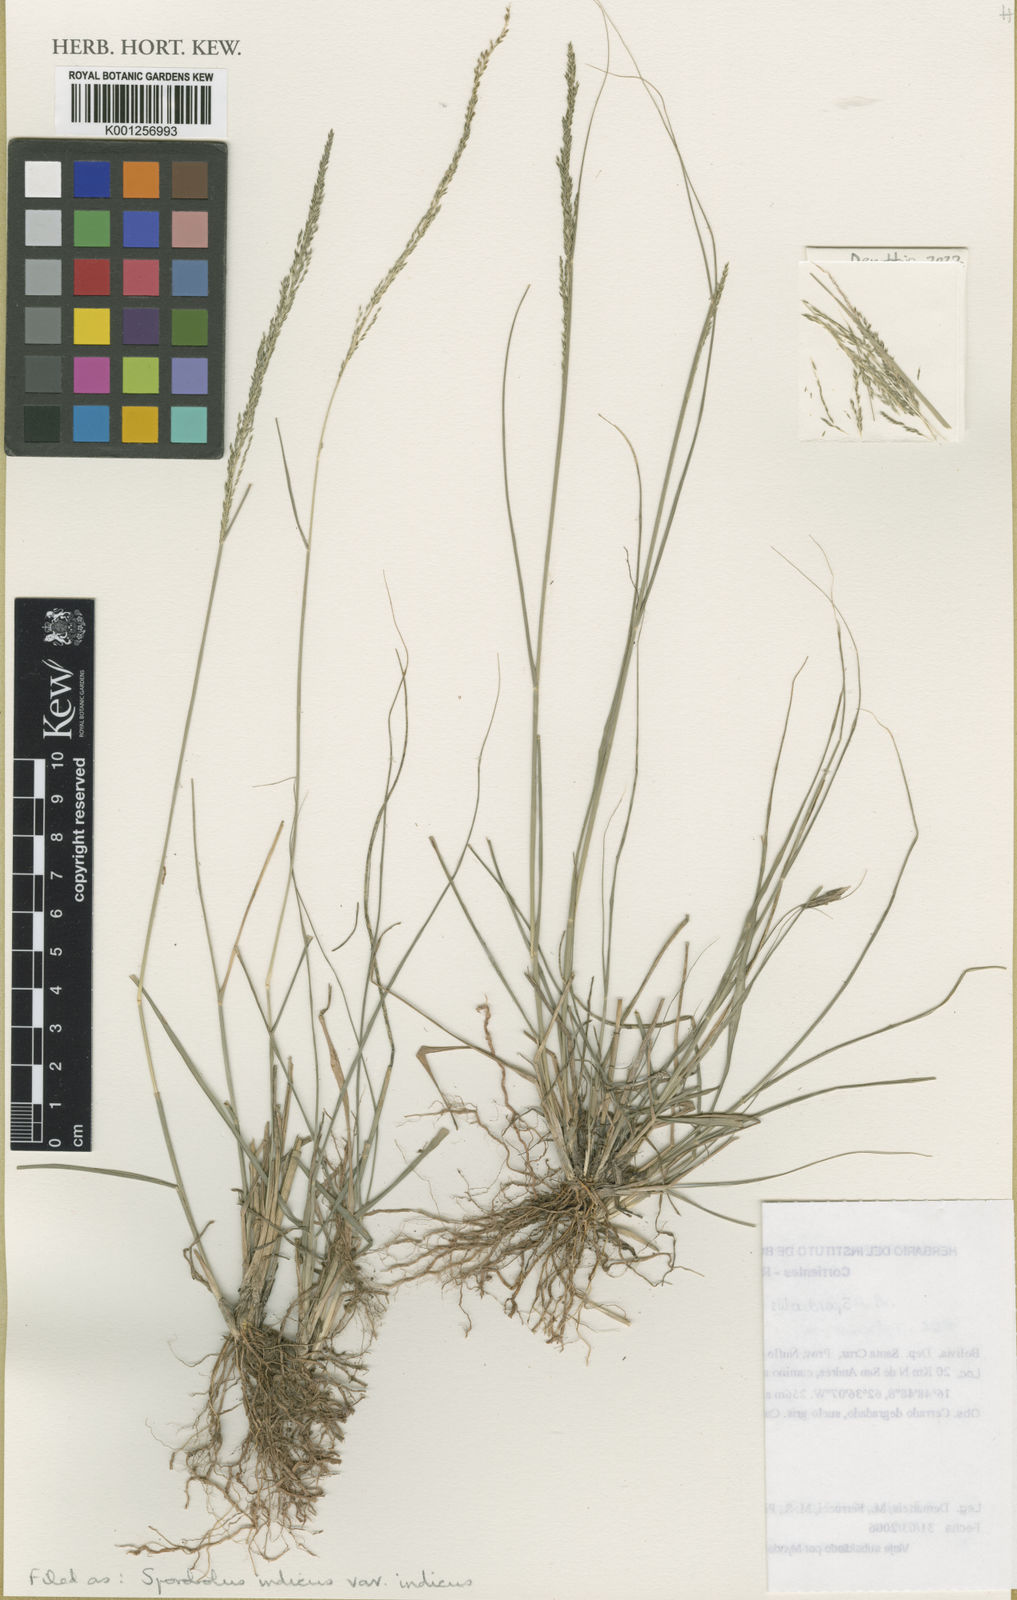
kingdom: Plantae
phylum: Tracheophyta
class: Liliopsida
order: Poales
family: Poaceae
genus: Sporobolus
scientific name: Sporobolus indicus
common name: Smut grass
